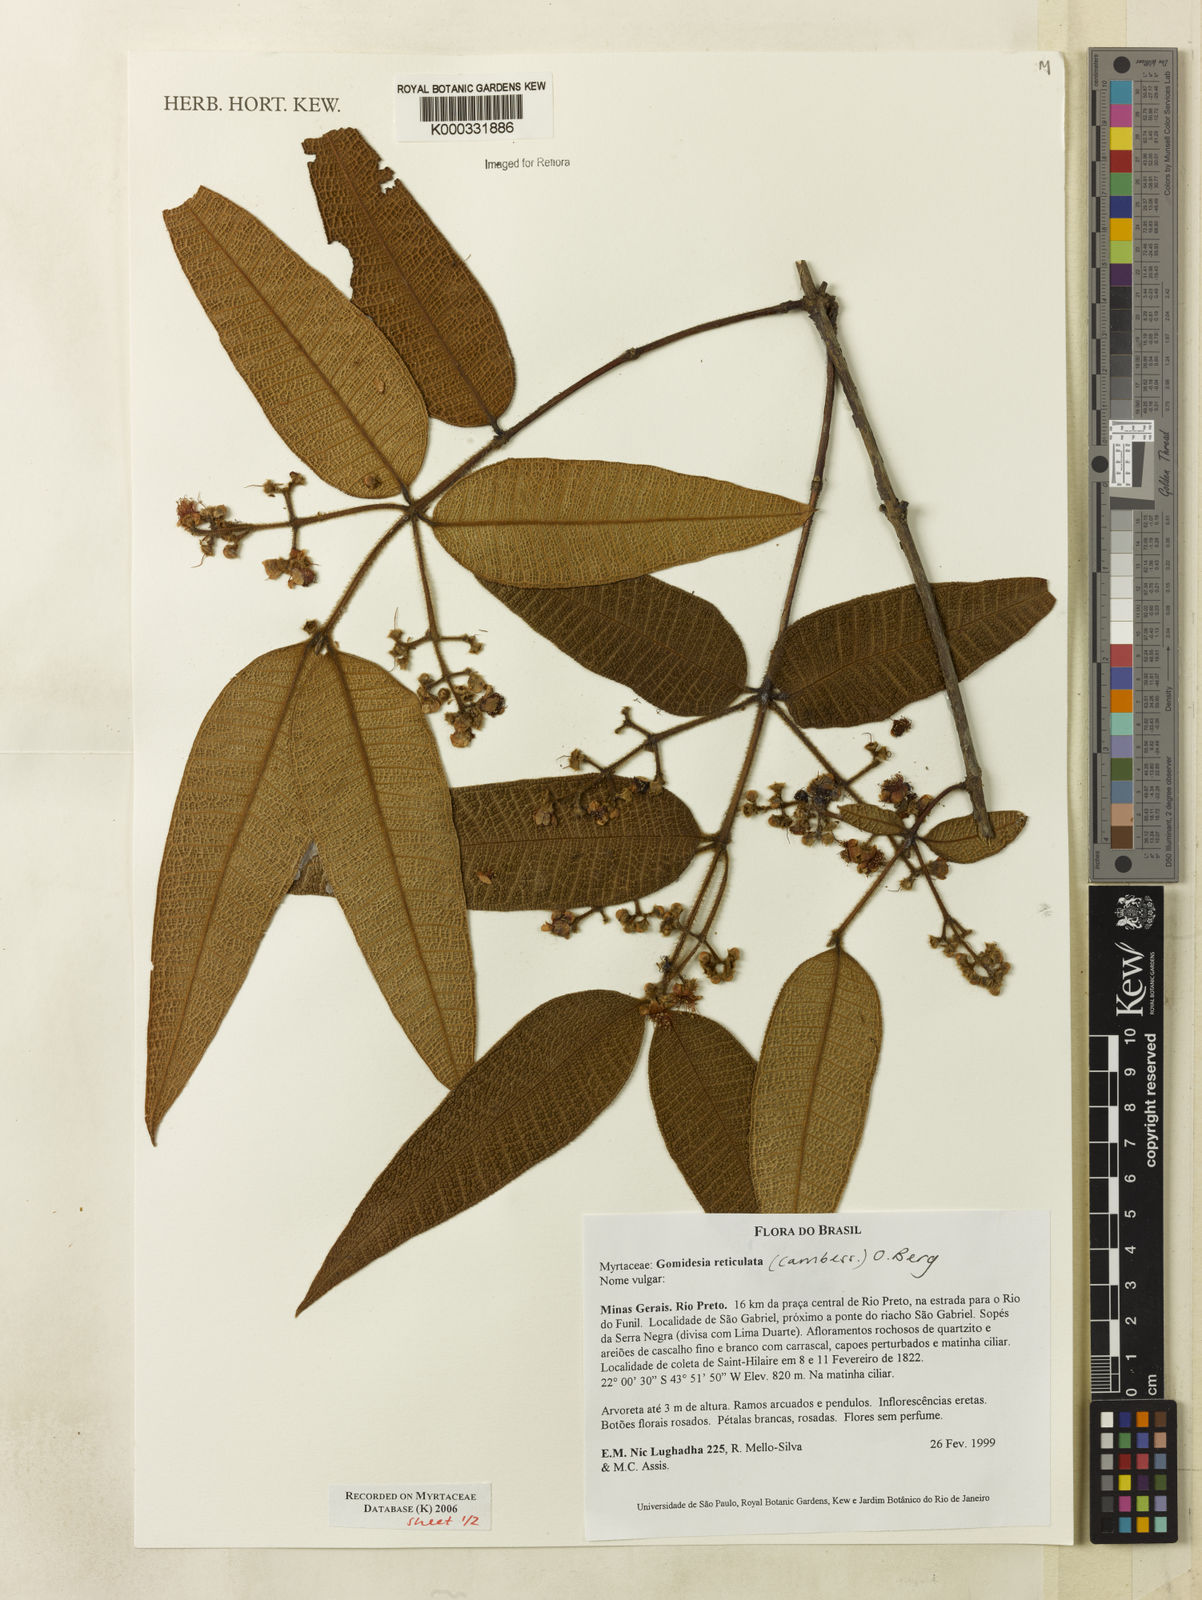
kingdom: Plantae
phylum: Tracheophyta
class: Magnoliopsida
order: Myrtales
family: Myrtaceae
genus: Myrcia
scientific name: Myrcia reticulata
